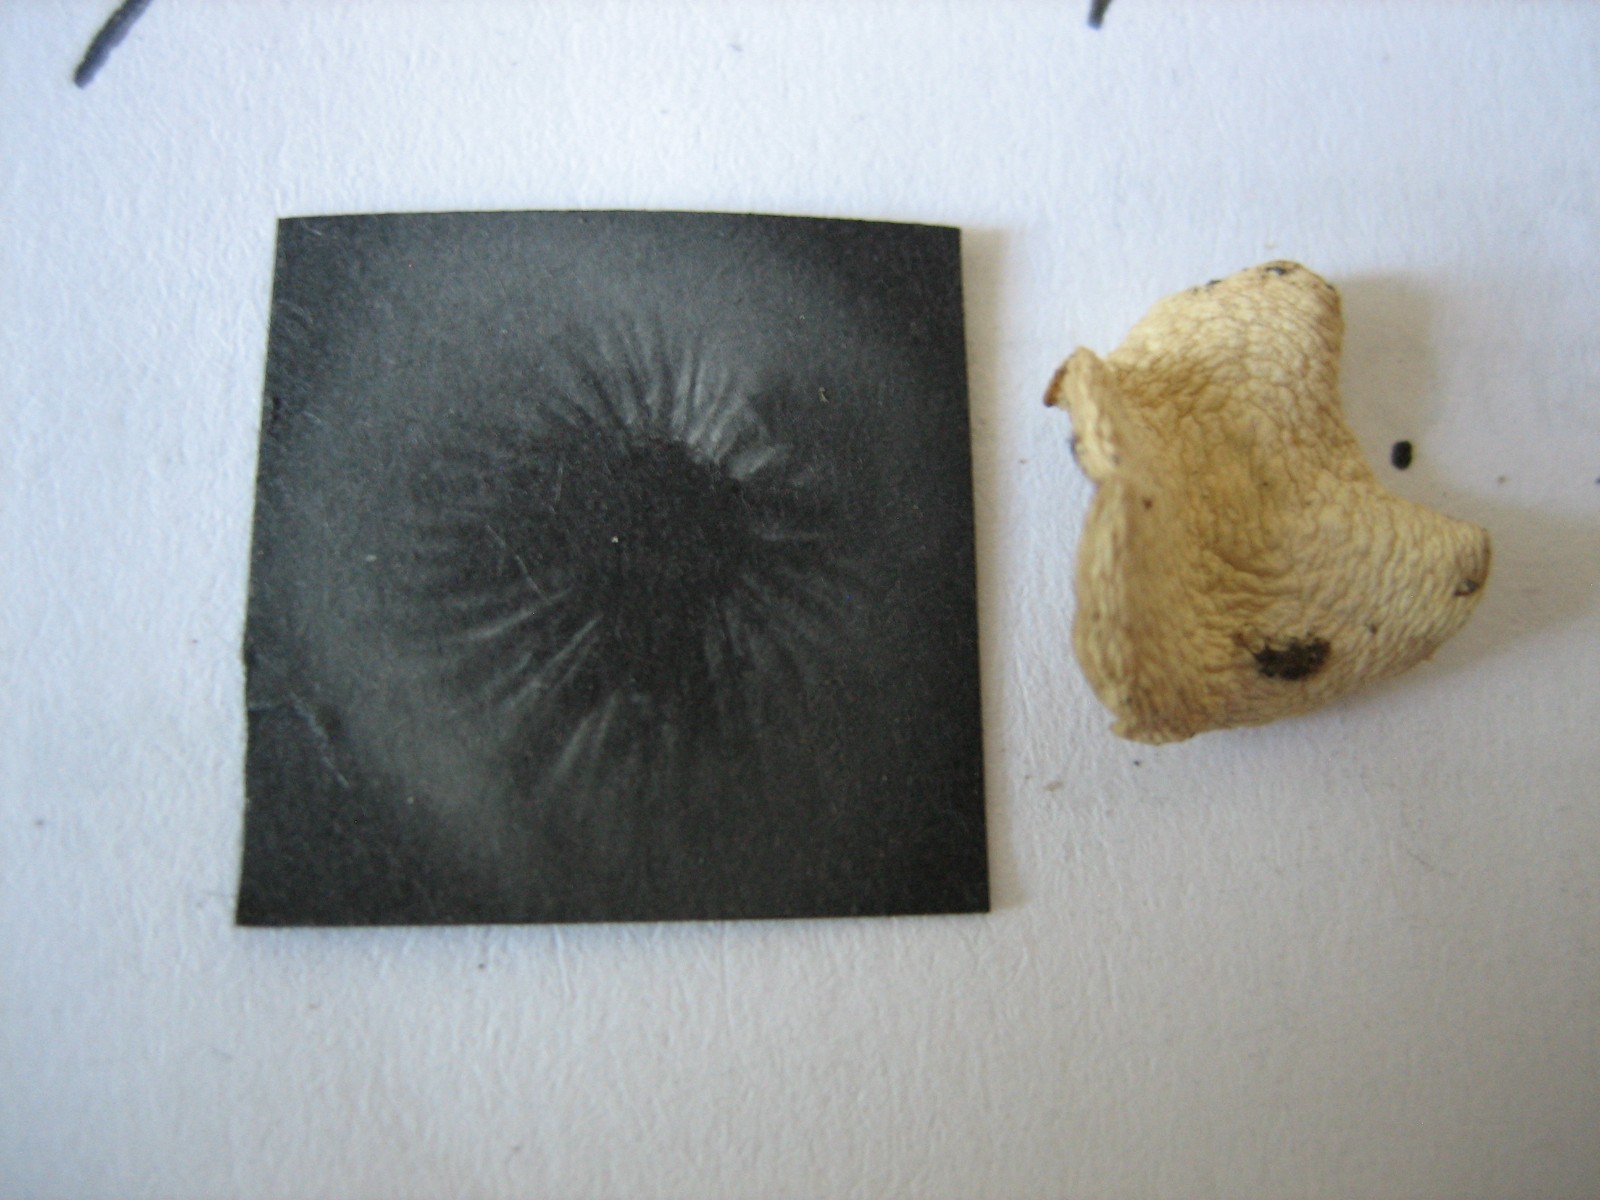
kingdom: Fungi
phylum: Basidiomycota
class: Agaricomycetes
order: Agaricales
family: Tricholomataceae
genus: Clitocybe
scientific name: Clitocybe
